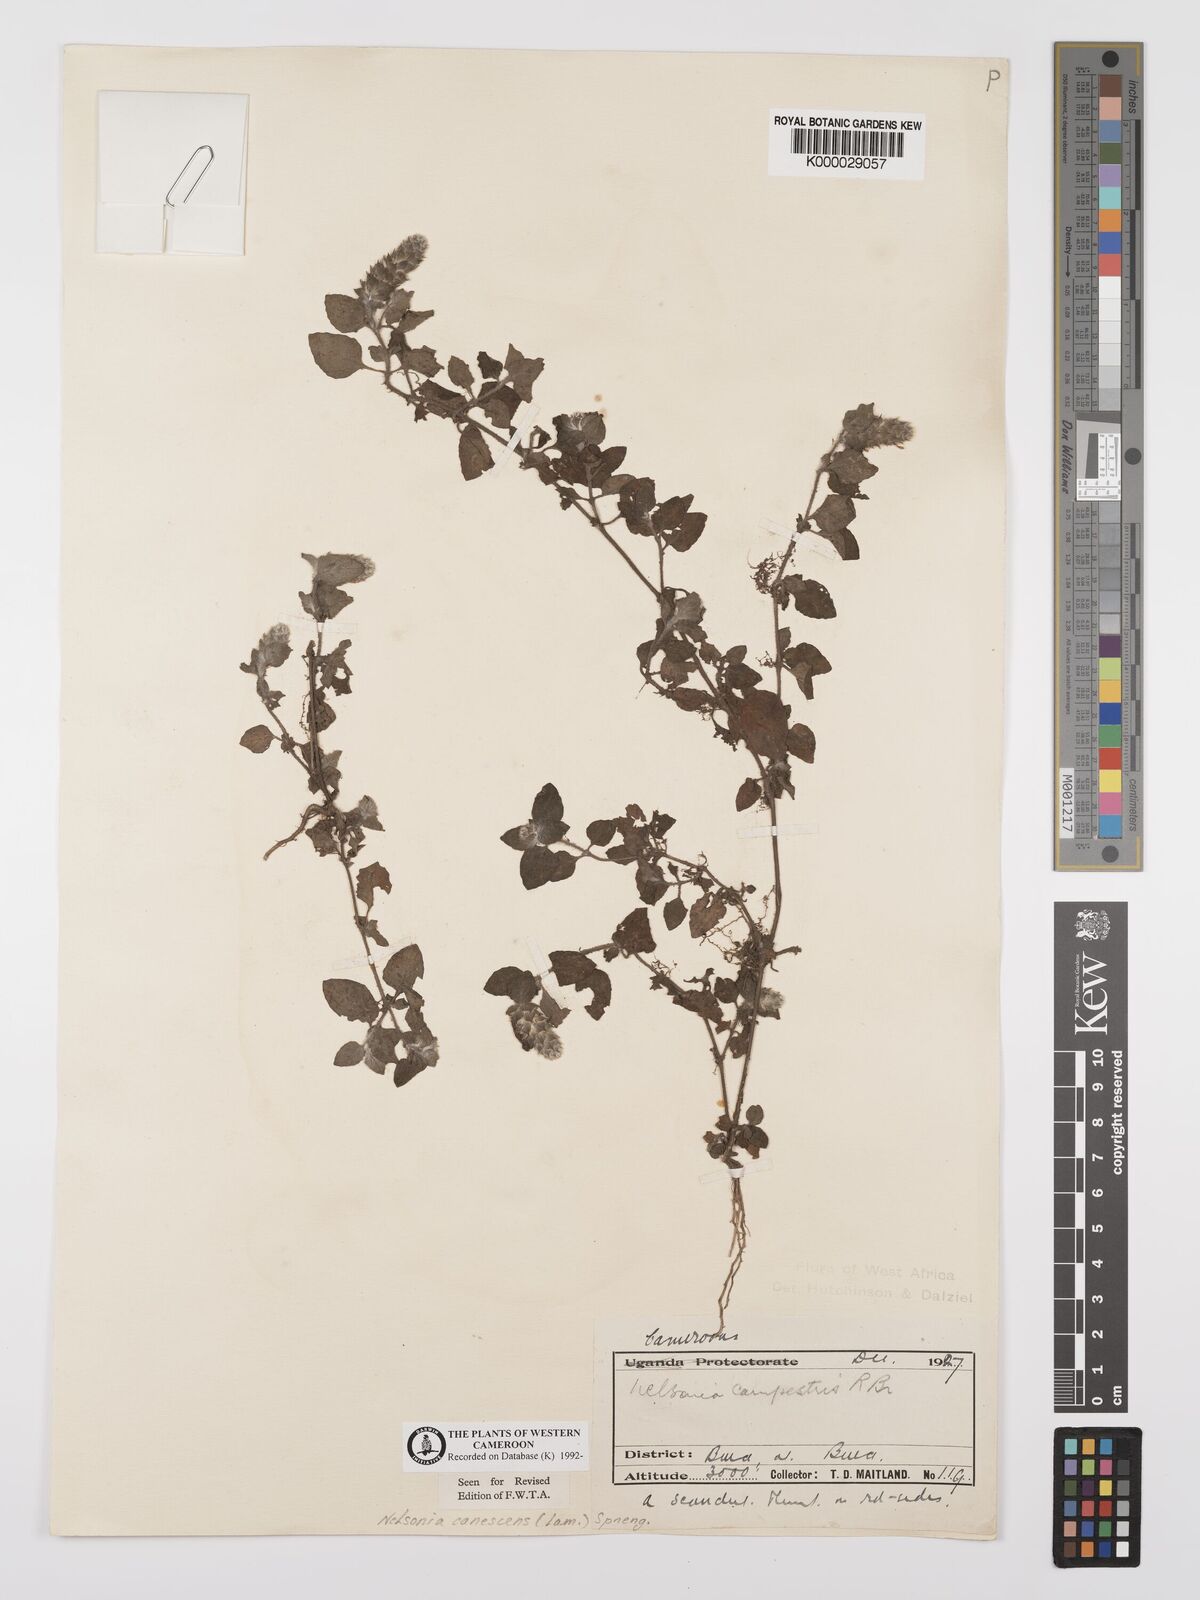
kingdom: Plantae
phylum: Tracheophyta
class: Magnoliopsida
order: Lamiales
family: Acanthaceae
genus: Nelsonia
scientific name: Nelsonia canescens
